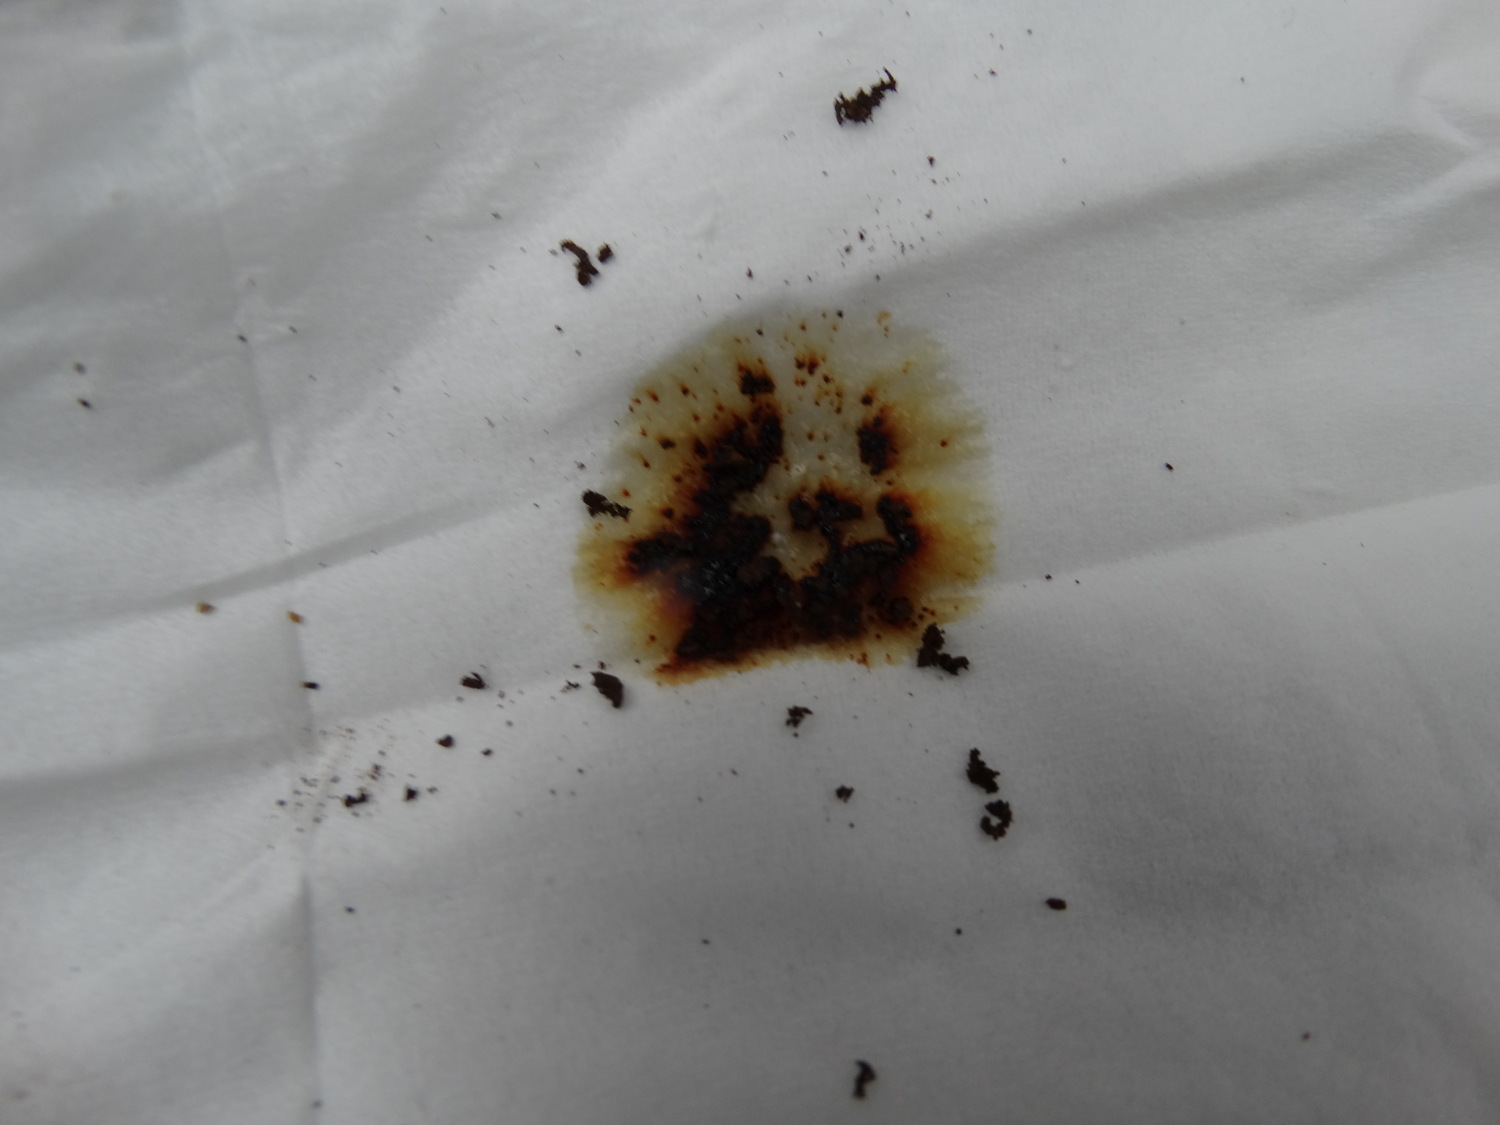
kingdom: Fungi
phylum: Ascomycota
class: Sordariomycetes
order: Xylariales
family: Hypoxylaceae
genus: Hypoxylon
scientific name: Hypoxylon petriniae
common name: nedsænket kulbær
